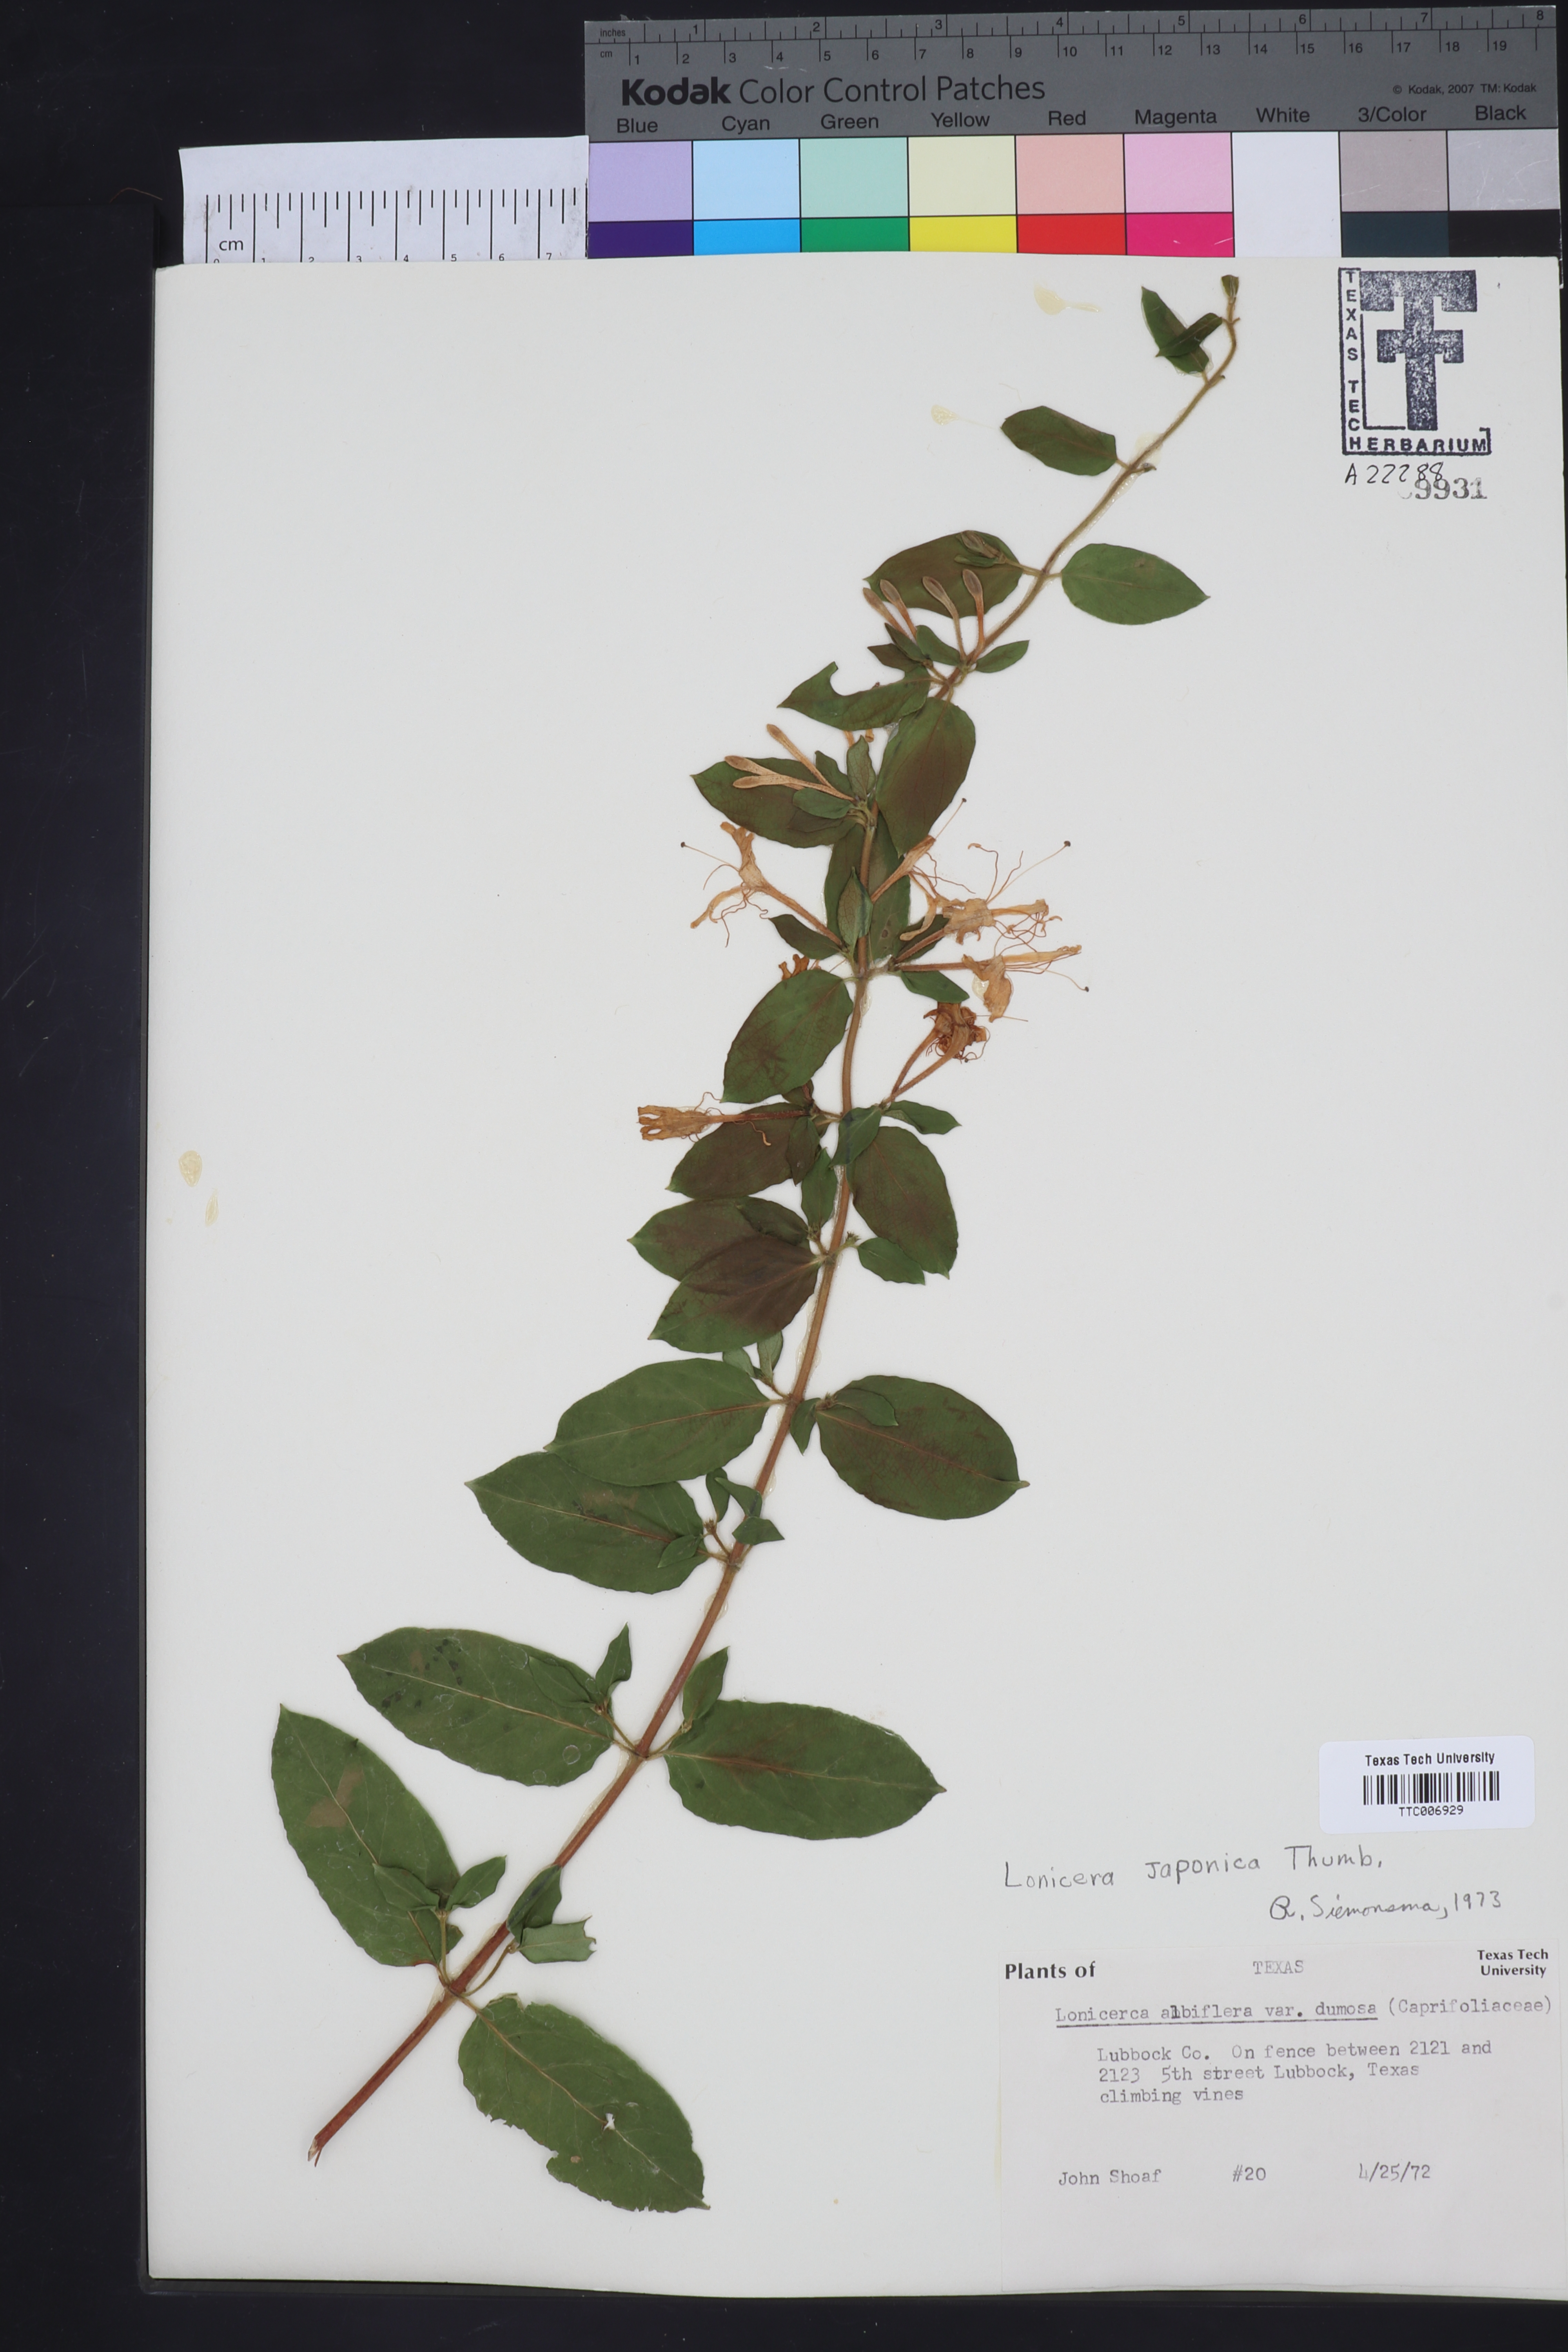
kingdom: Plantae
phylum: Tracheophyta
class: Magnoliopsida
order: Dipsacales
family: Caprifoliaceae
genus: Lonicera
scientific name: Lonicera albiflora
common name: White honeysuckle
